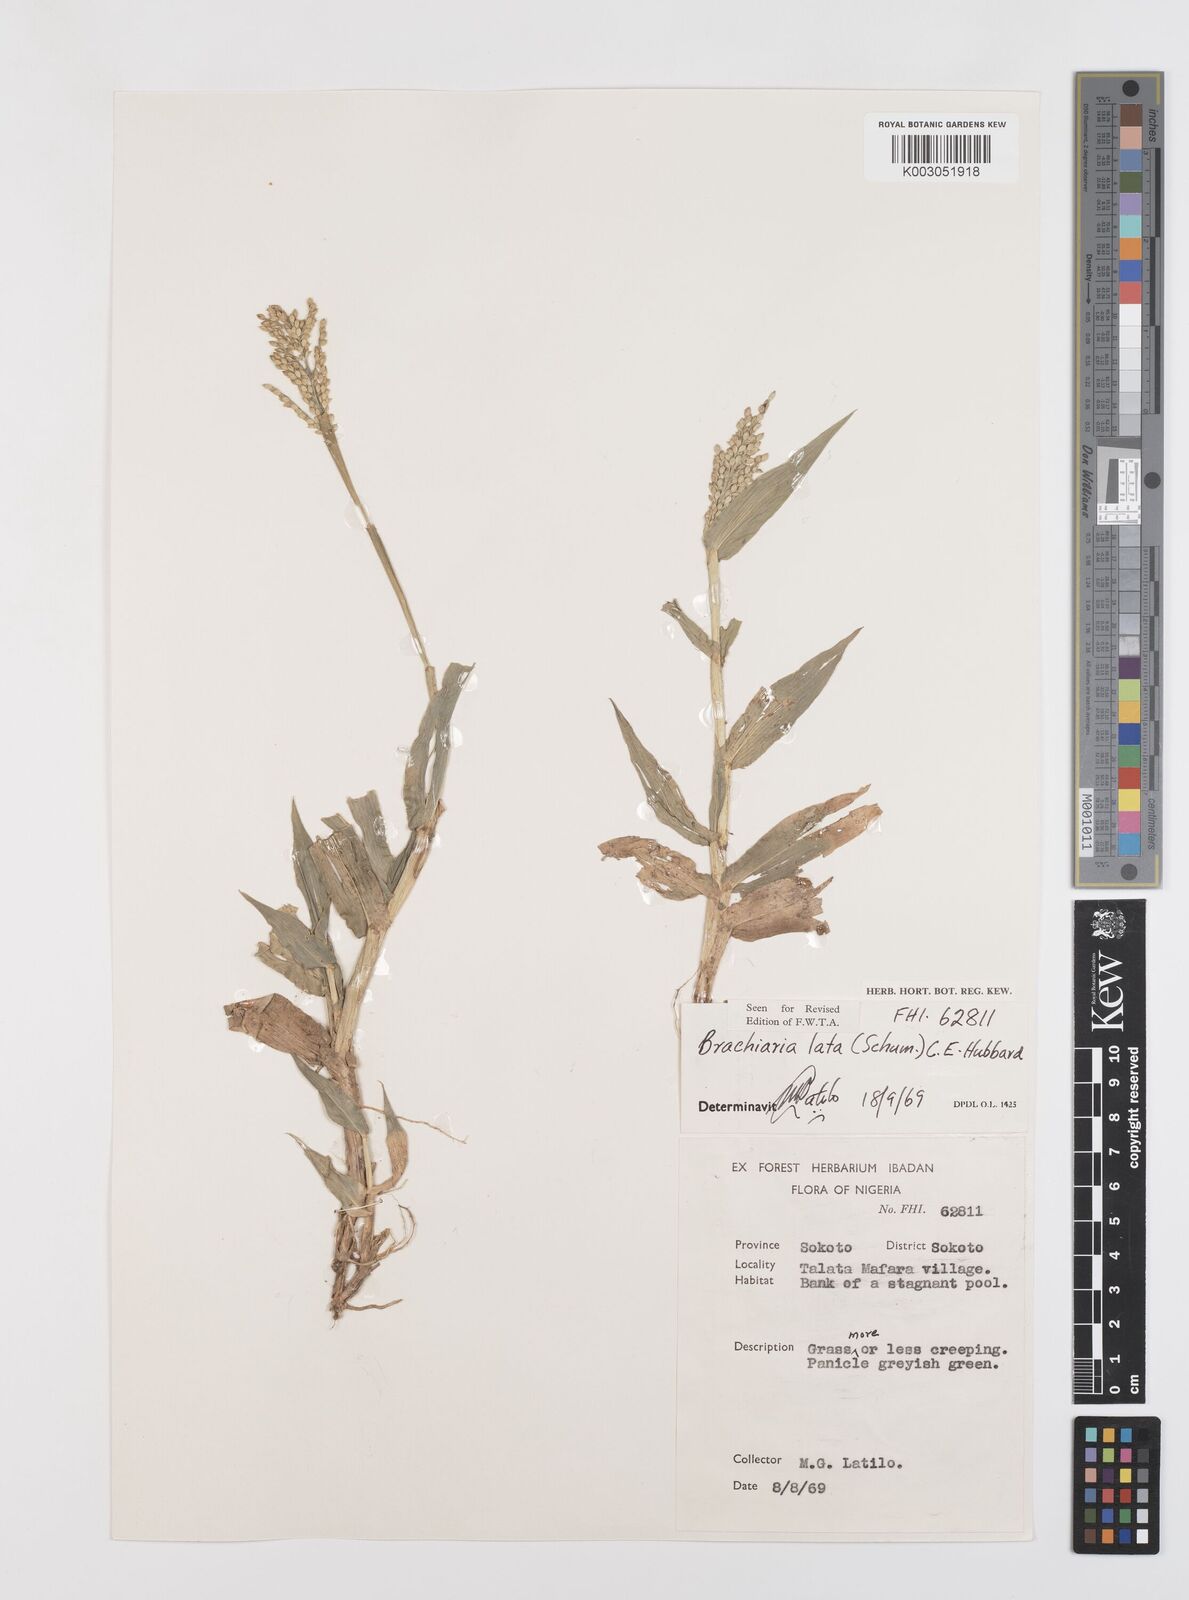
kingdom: Plantae
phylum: Tracheophyta
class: Liliopsida
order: Poales
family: Poaceae
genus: Urochloa
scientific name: Urochloa lata
